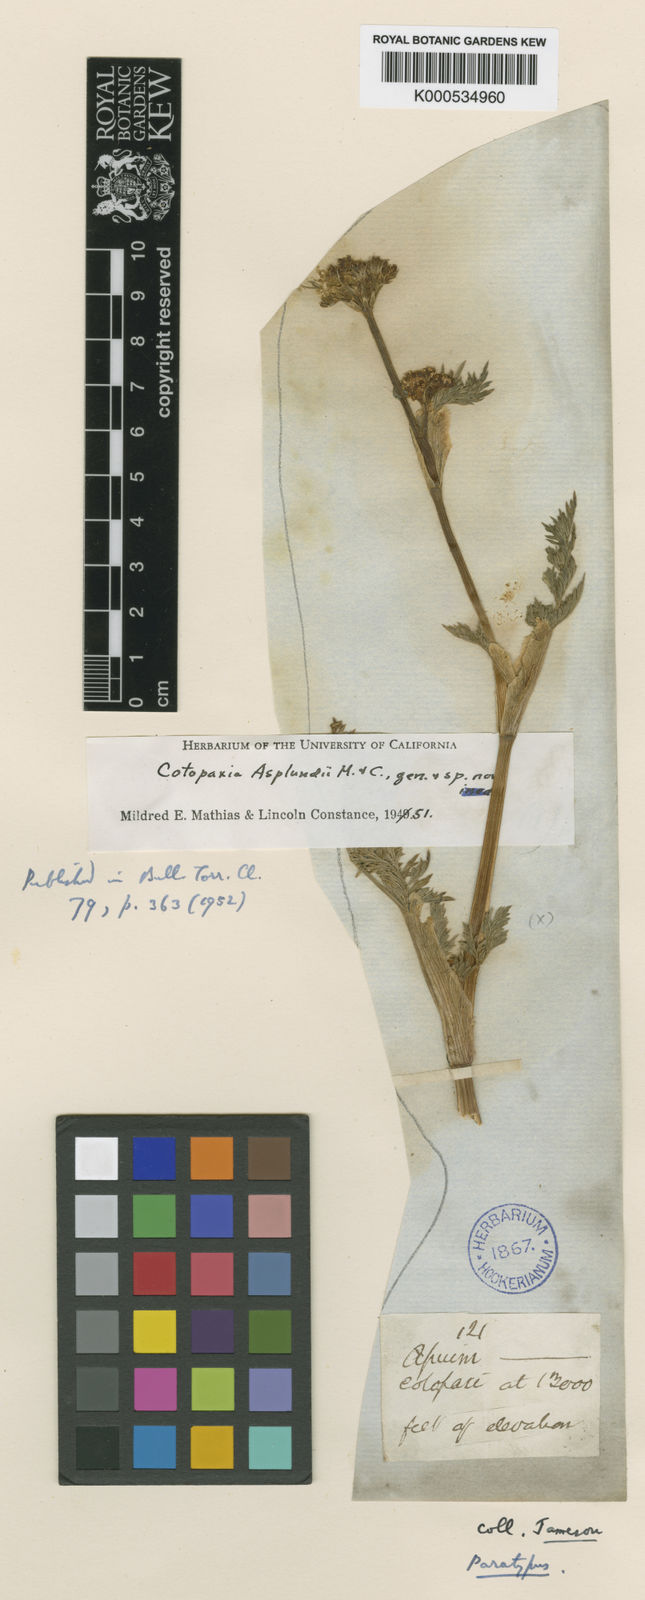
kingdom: Plantae
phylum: Tracheophyta
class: Magnoliopsida
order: Apiales
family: Apiaceae
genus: Cotopaxia
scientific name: Cotopaxia asplundii
